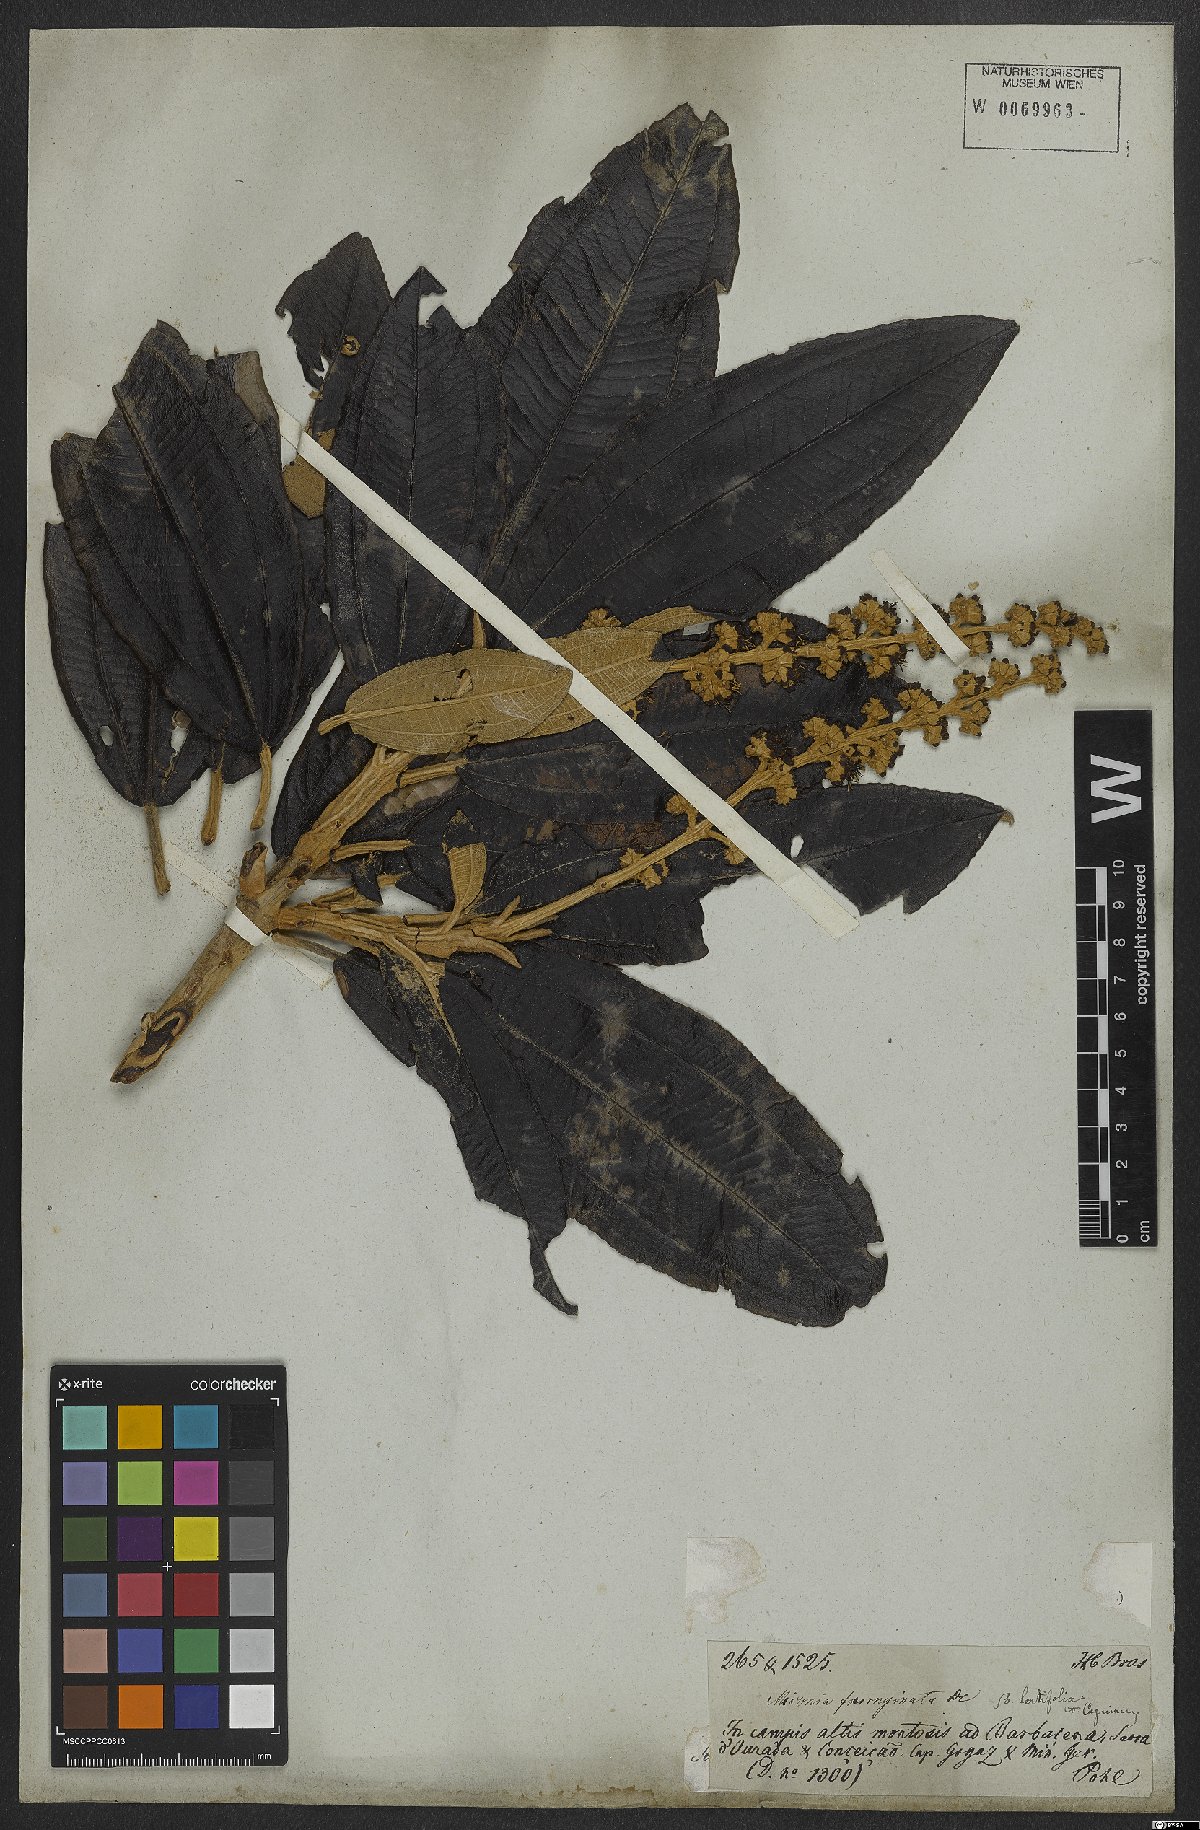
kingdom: Plantae
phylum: Tracheophyta
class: Magnoliopsida
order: Myrtales
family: Melastomataceae
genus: Miconia
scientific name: Miconia ferruginata
